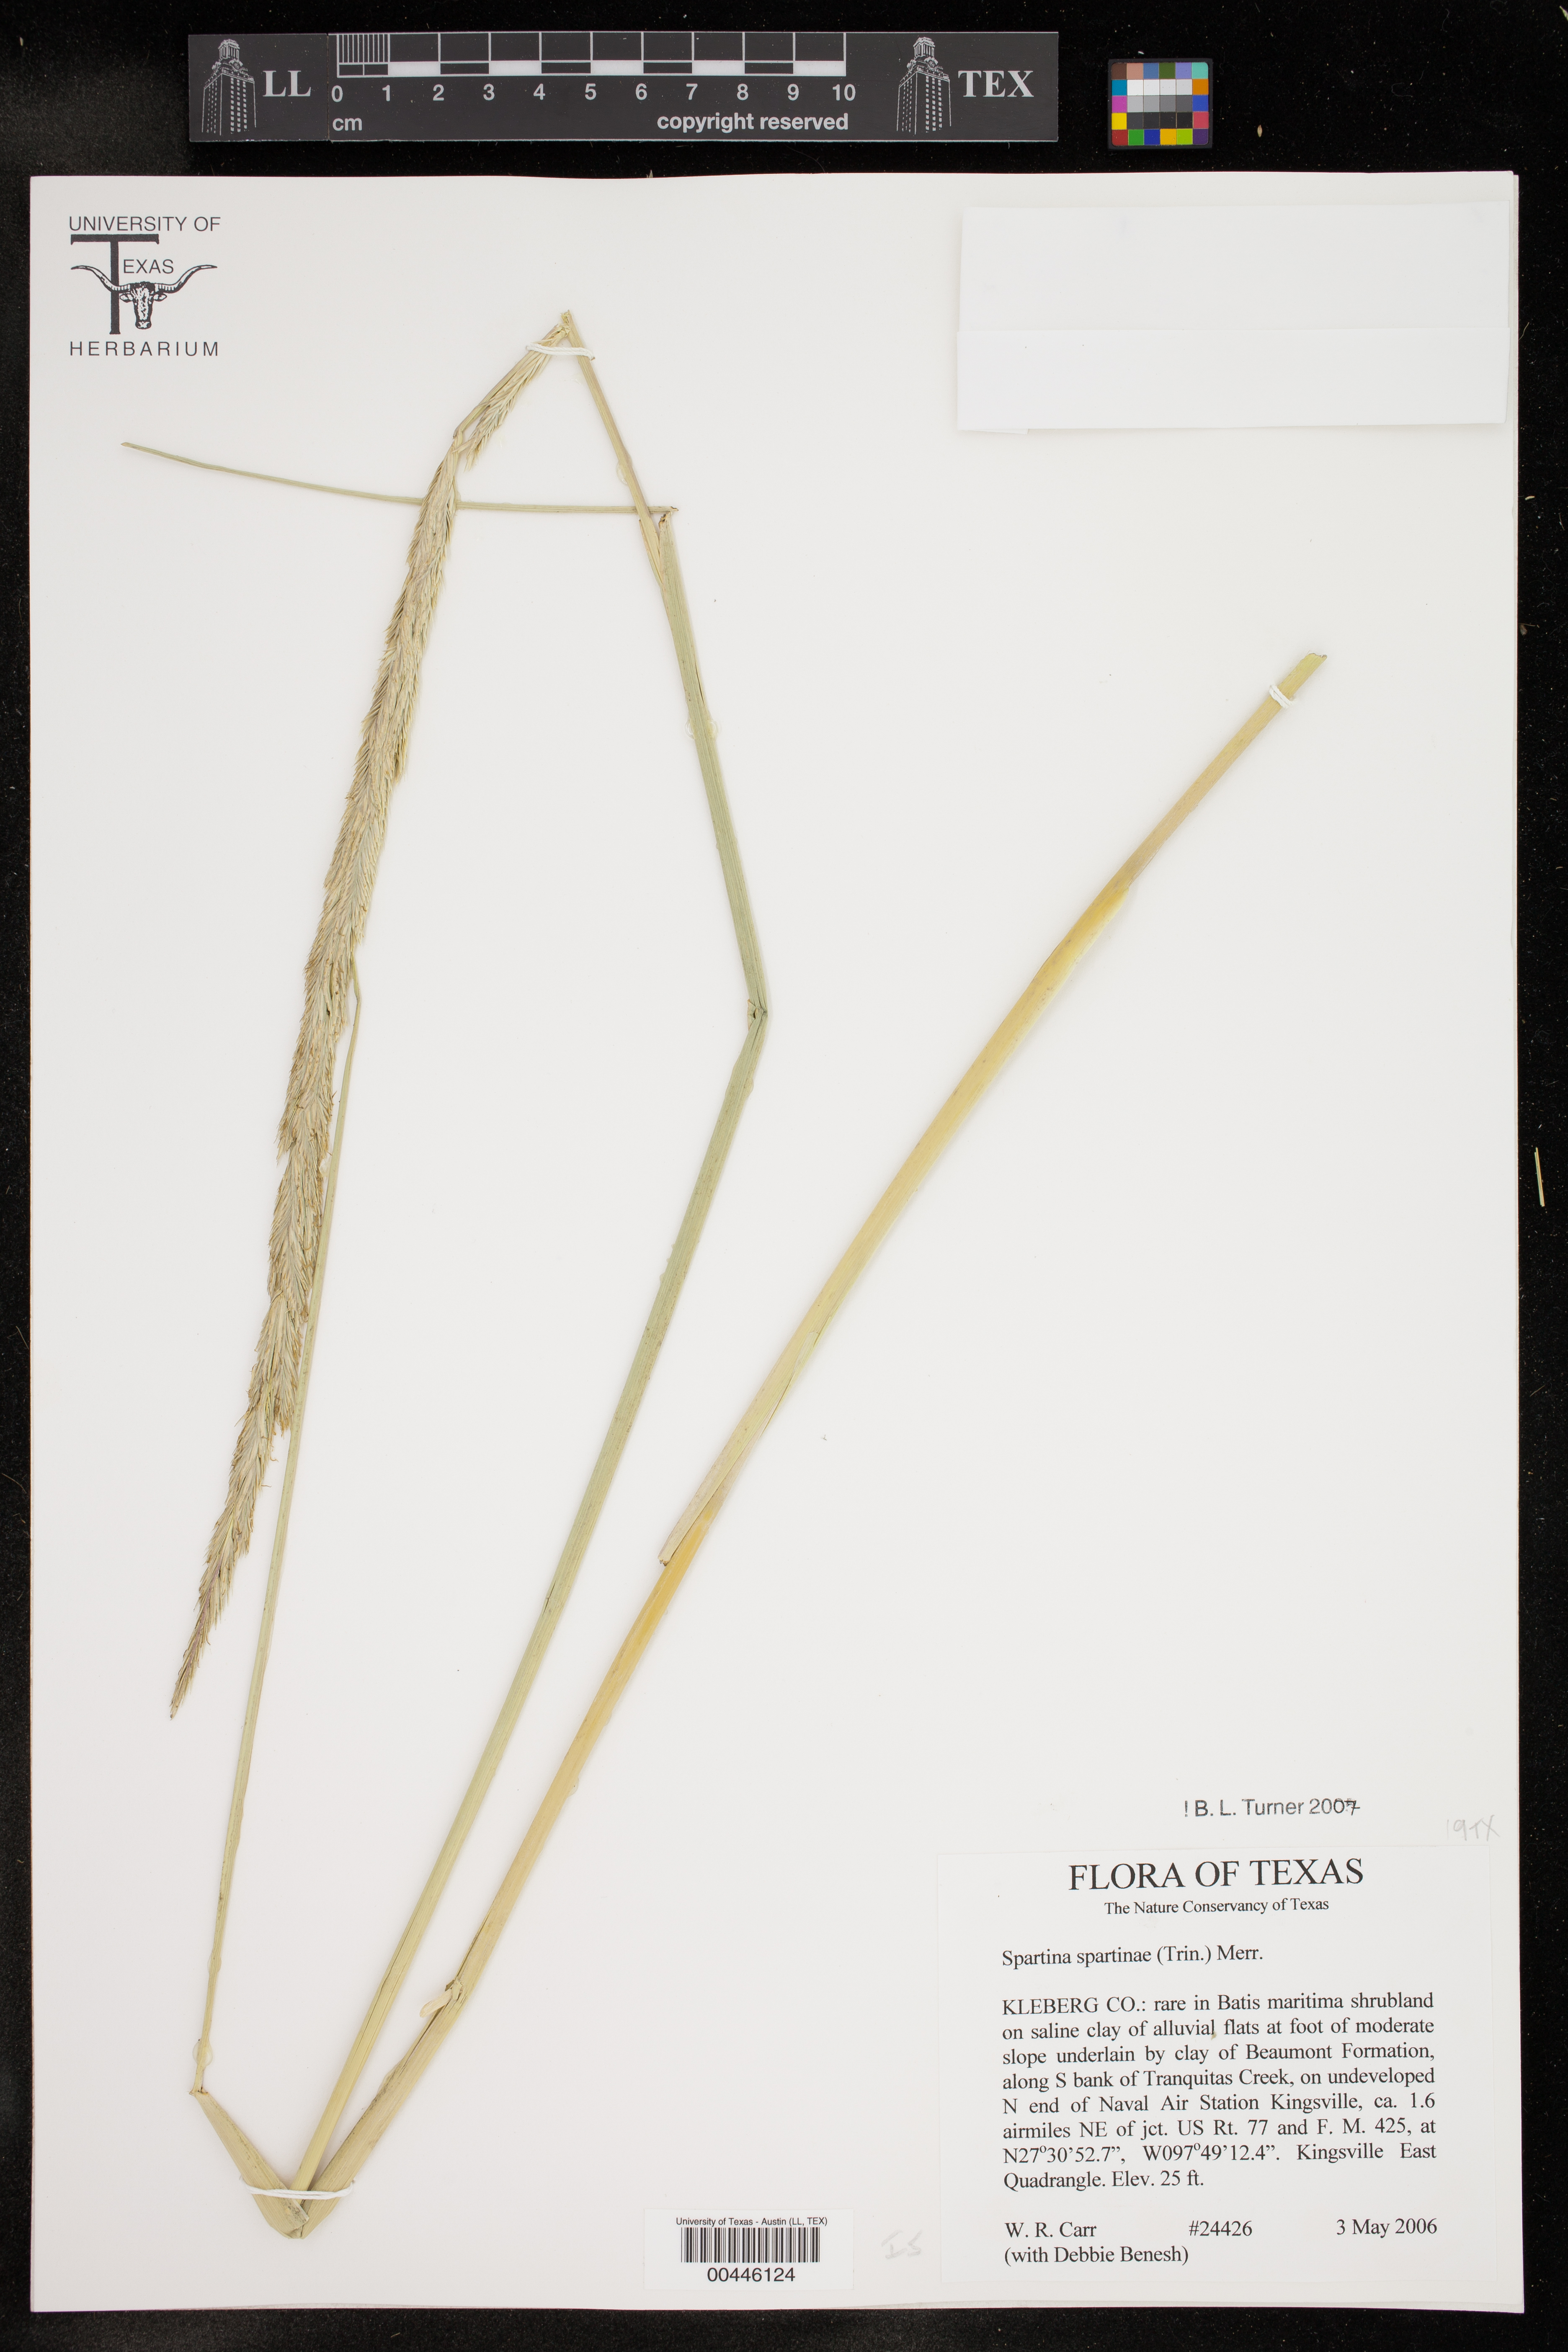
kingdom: Plantae
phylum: Tracheophyta
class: Liliopsida
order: Poales
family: Poaceae
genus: Sporobolus
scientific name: Sporobolus spartinae
